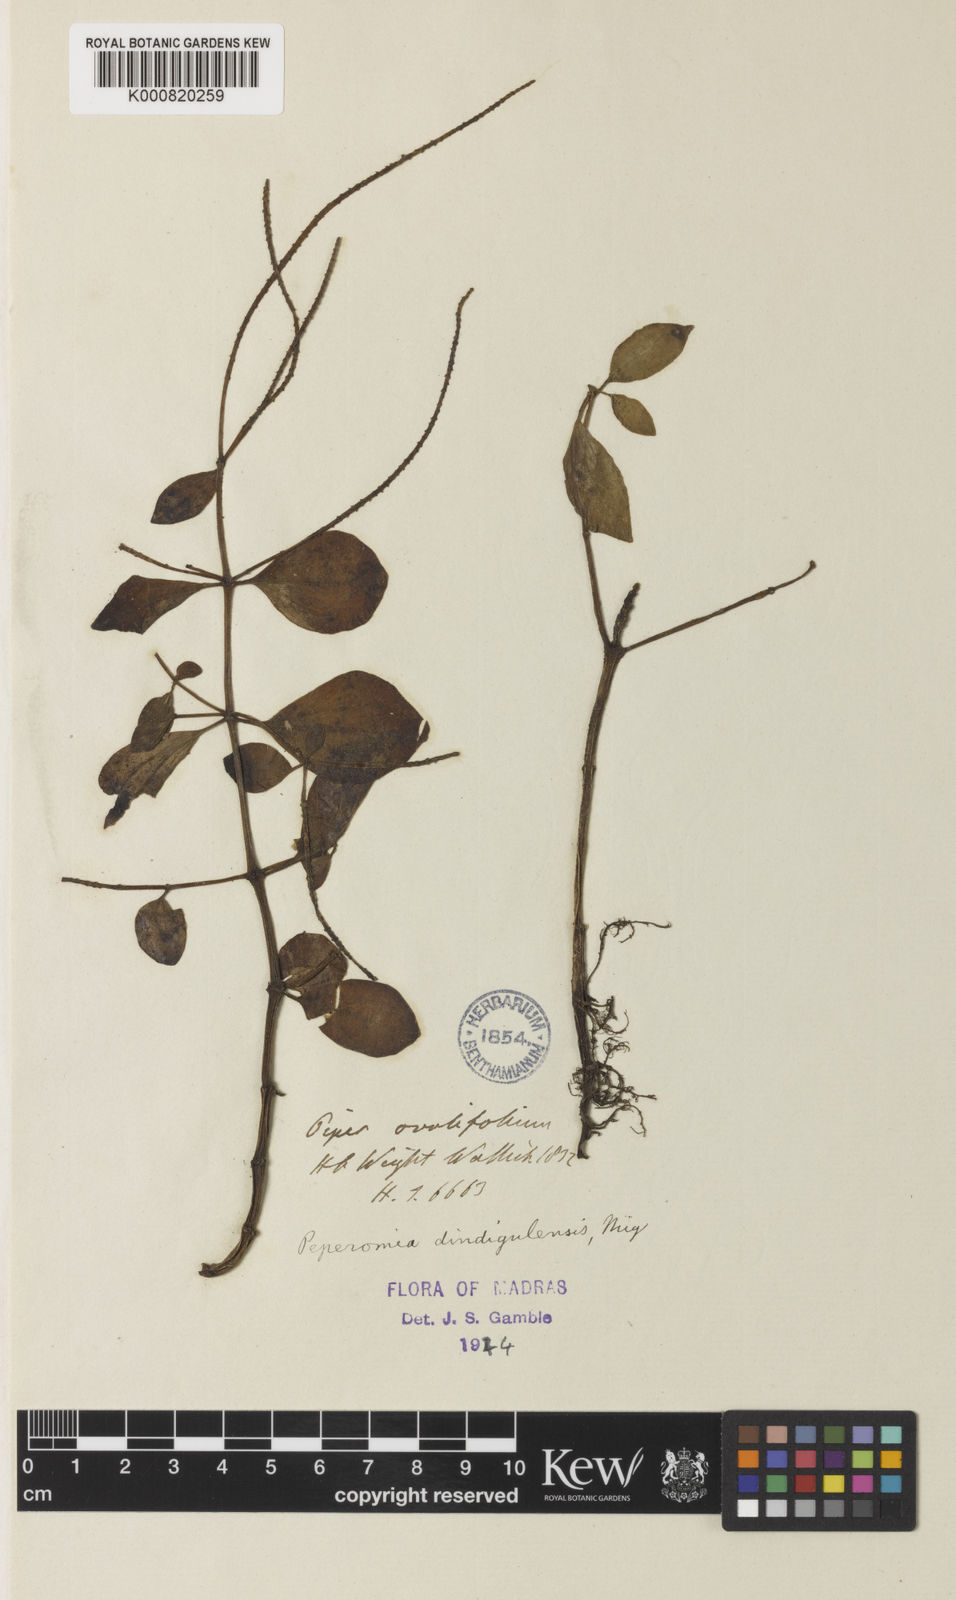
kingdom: Plantae
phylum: Tracheophyta
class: Magnoliopsida
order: Piperales
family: Piperaceae
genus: Peperomia
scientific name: Peperomia leptostachya
